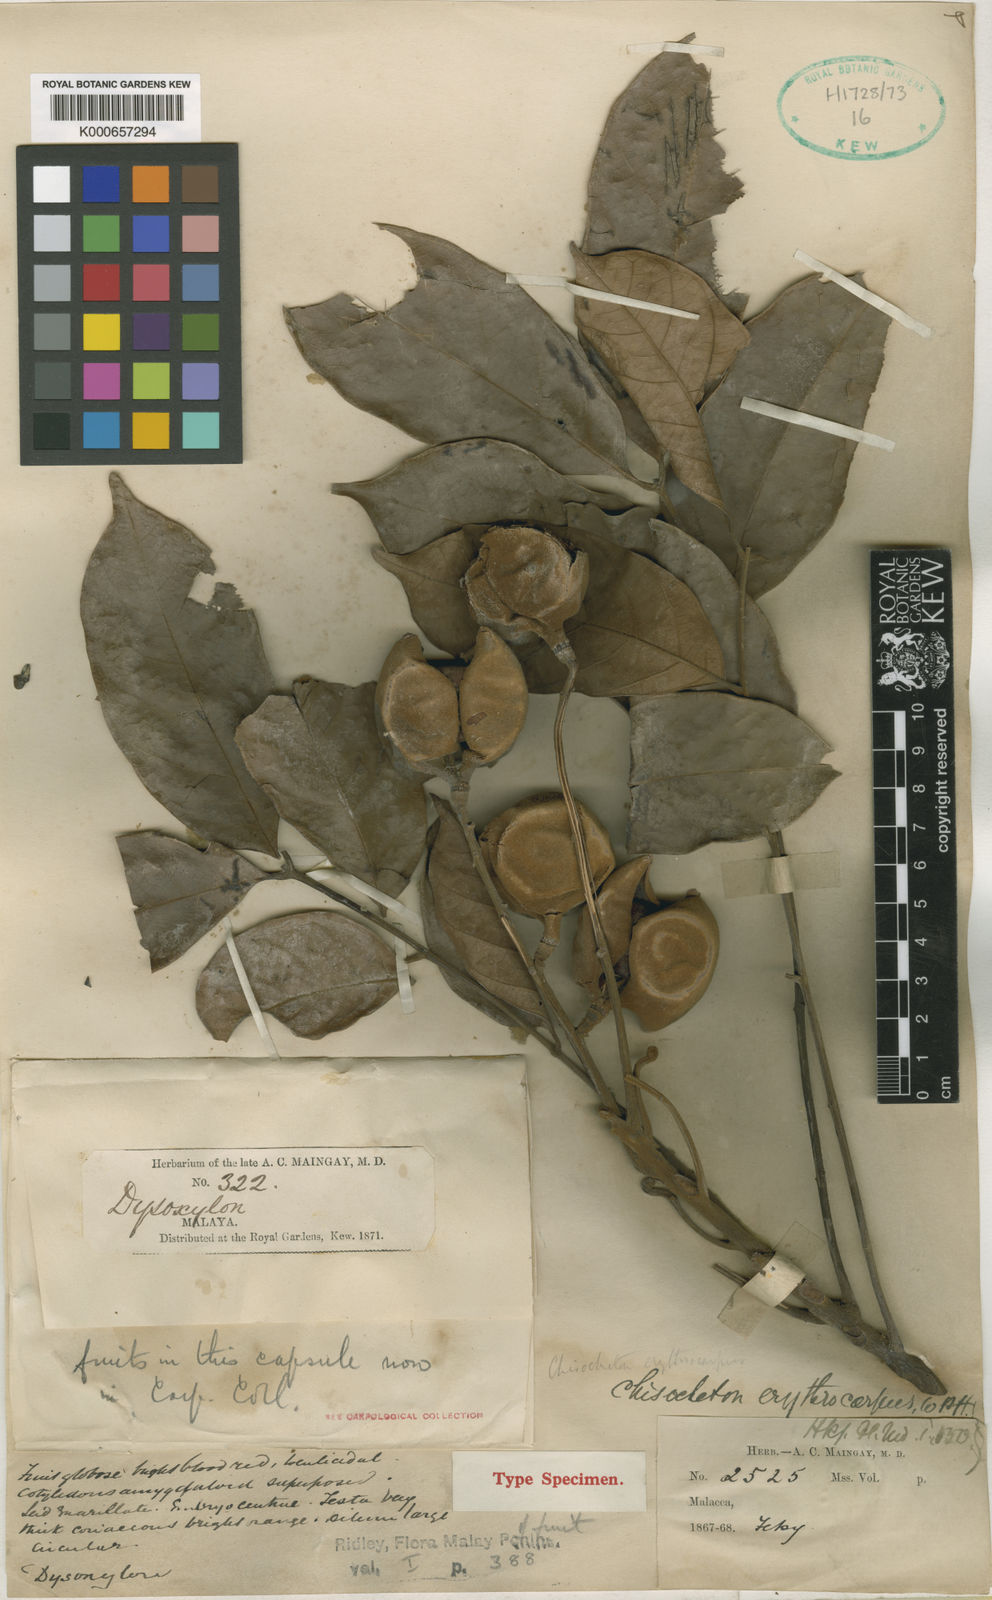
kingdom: Plantae
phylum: Tracheophyta
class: Magnoliopsida
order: Sapindales
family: Meliaceae
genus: Chisocheton
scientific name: Chisocheton erythrocarpus
